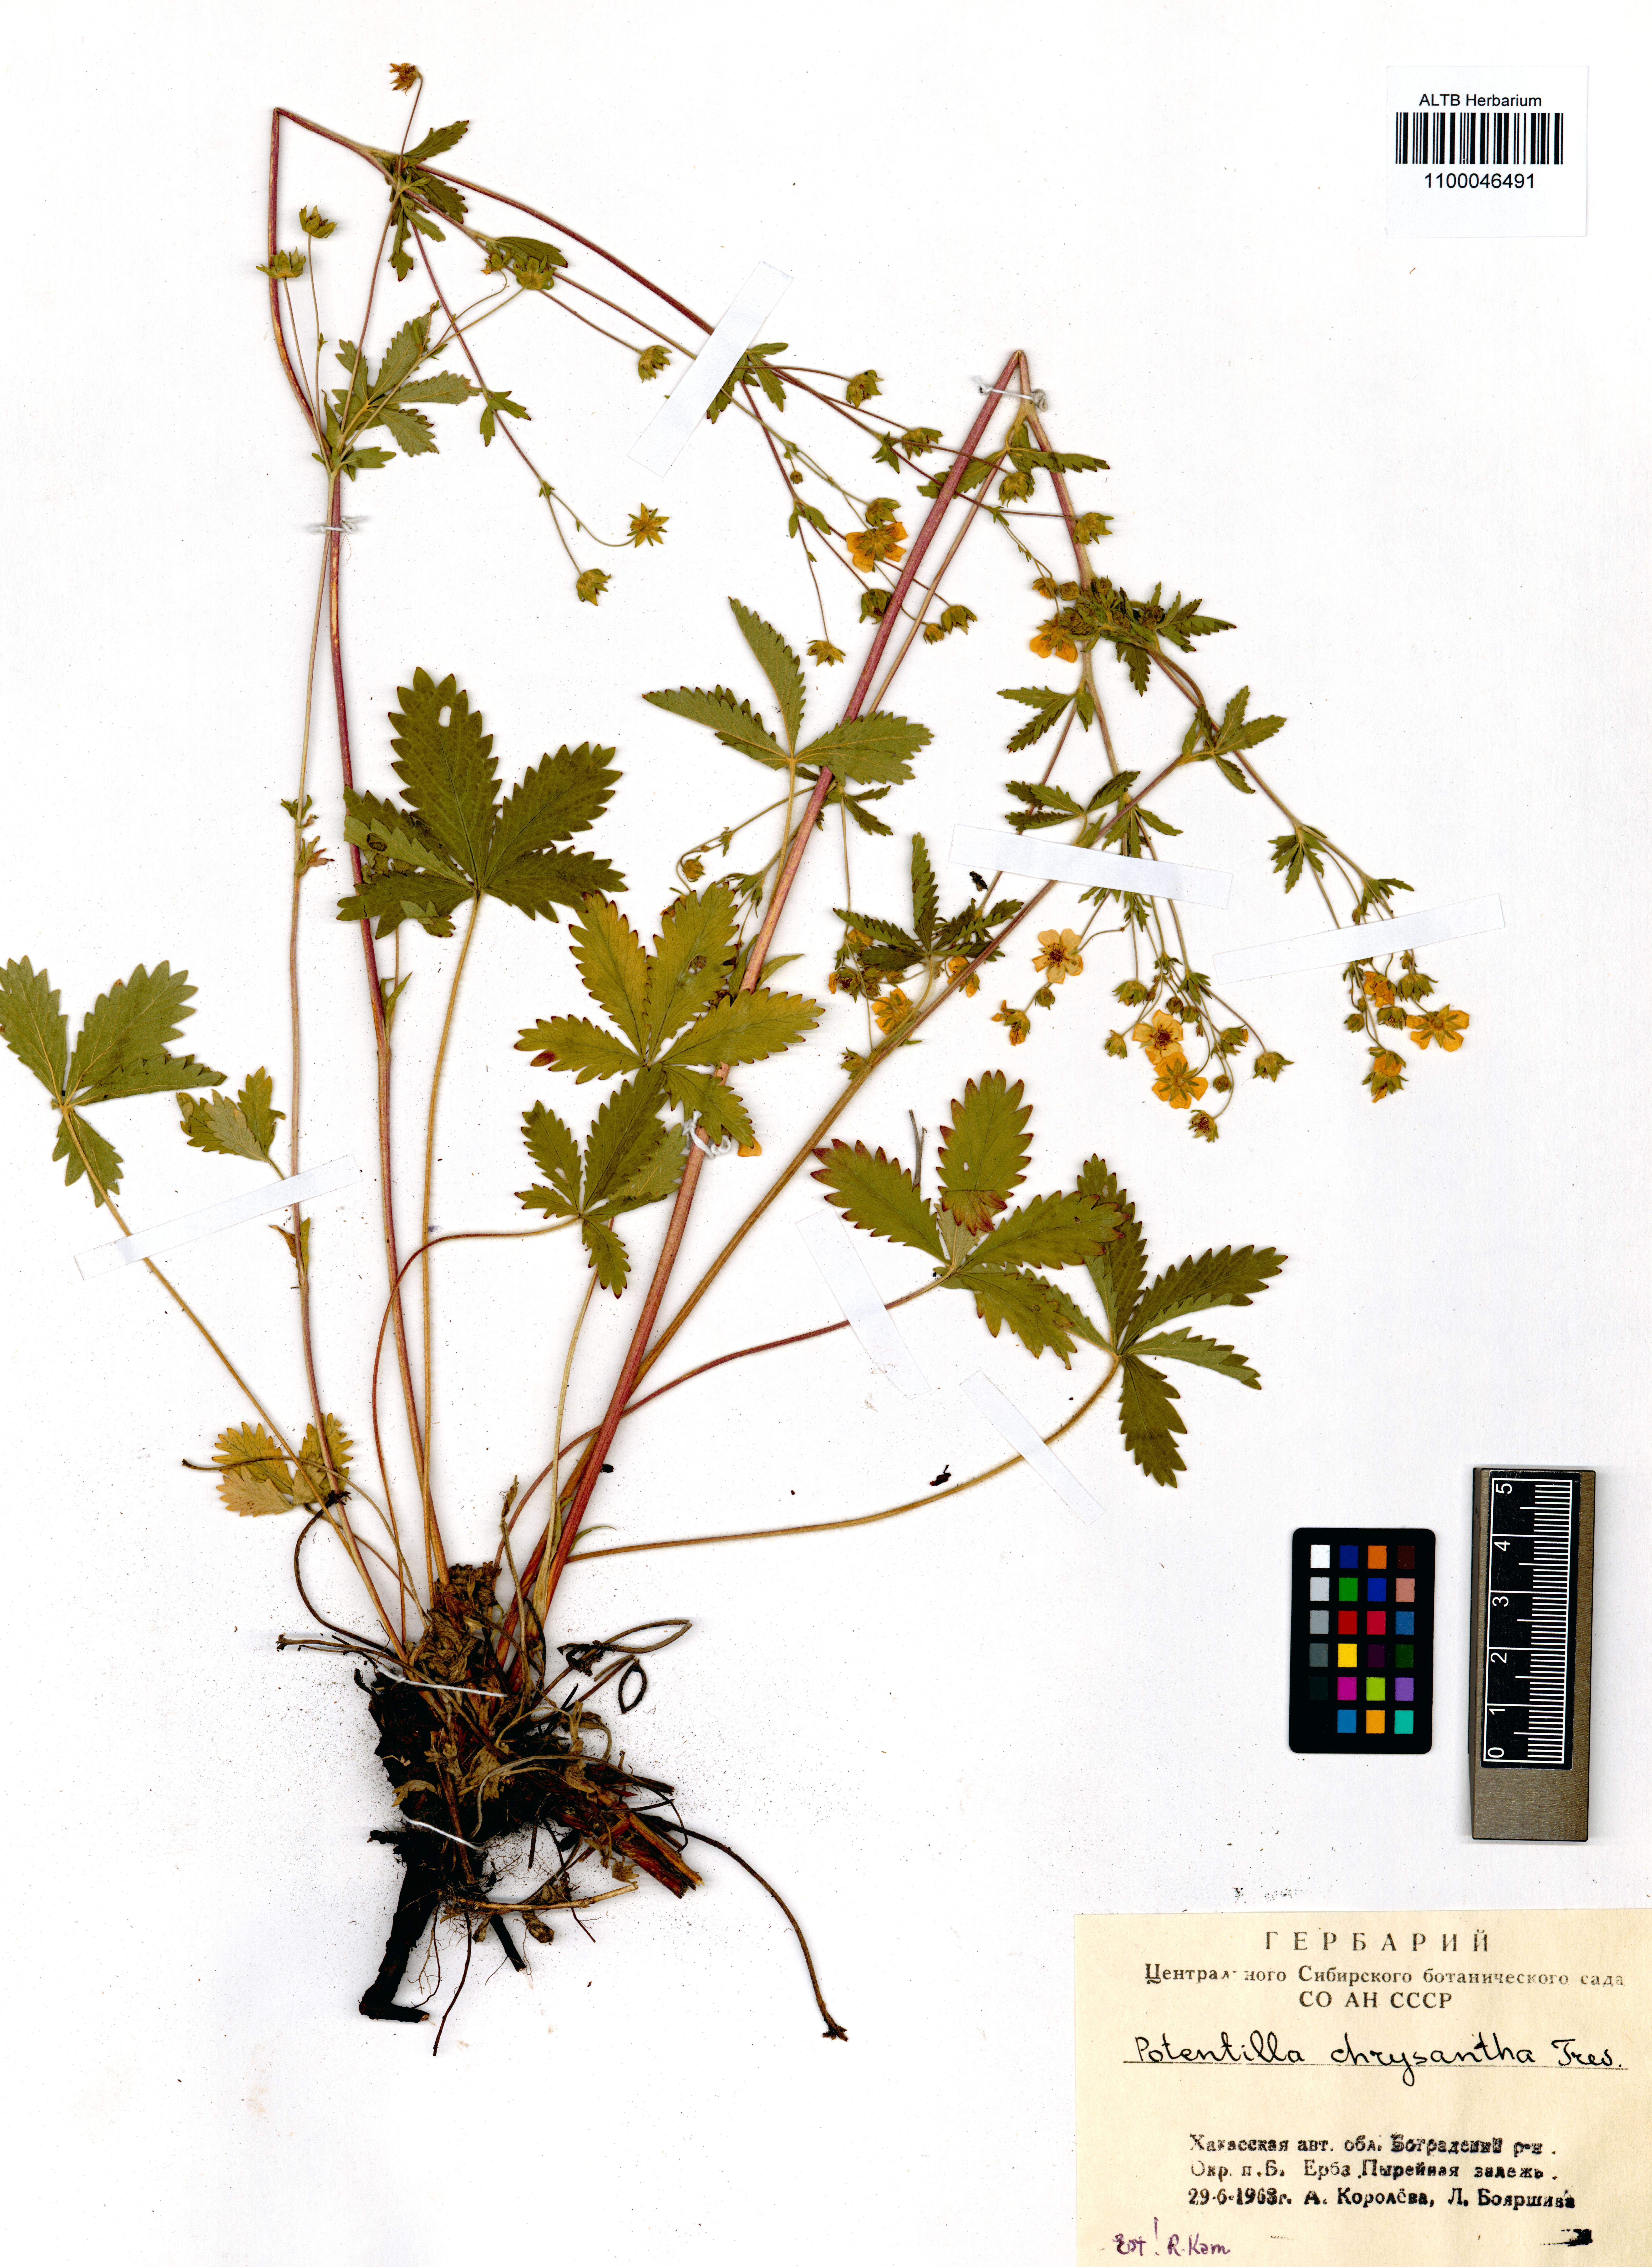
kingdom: Plantae
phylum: Tracheophyta
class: Magnoliopsida
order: Rosales
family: Rosaceae
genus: Potentilla
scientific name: Potentilla chrysantha
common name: Thuringian cinquefoil
